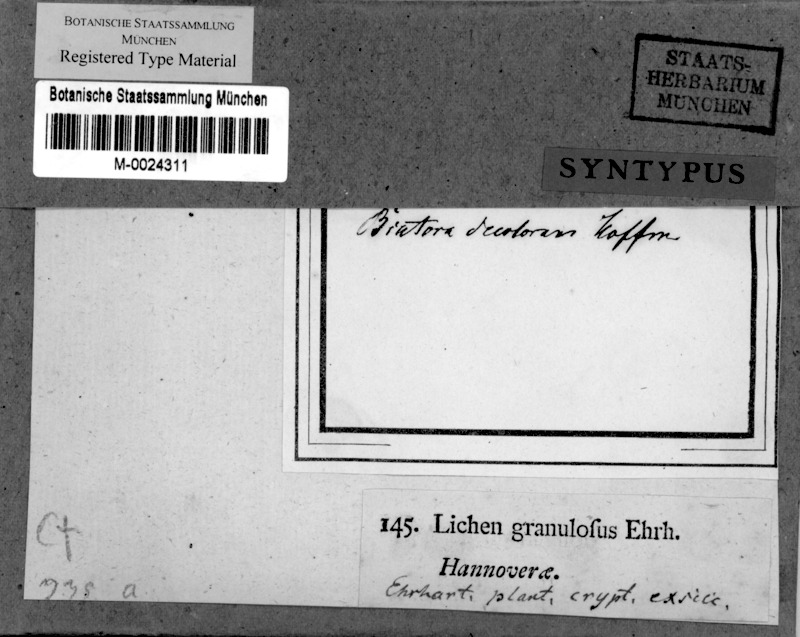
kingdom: Fungi
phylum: Ascomycota
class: Lecanoromycetes
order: Baeomycetales
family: Trapeliaceae
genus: Trapeliopsis
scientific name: Trapeliopsis granulosa
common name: Granular mottled-disk lichen
